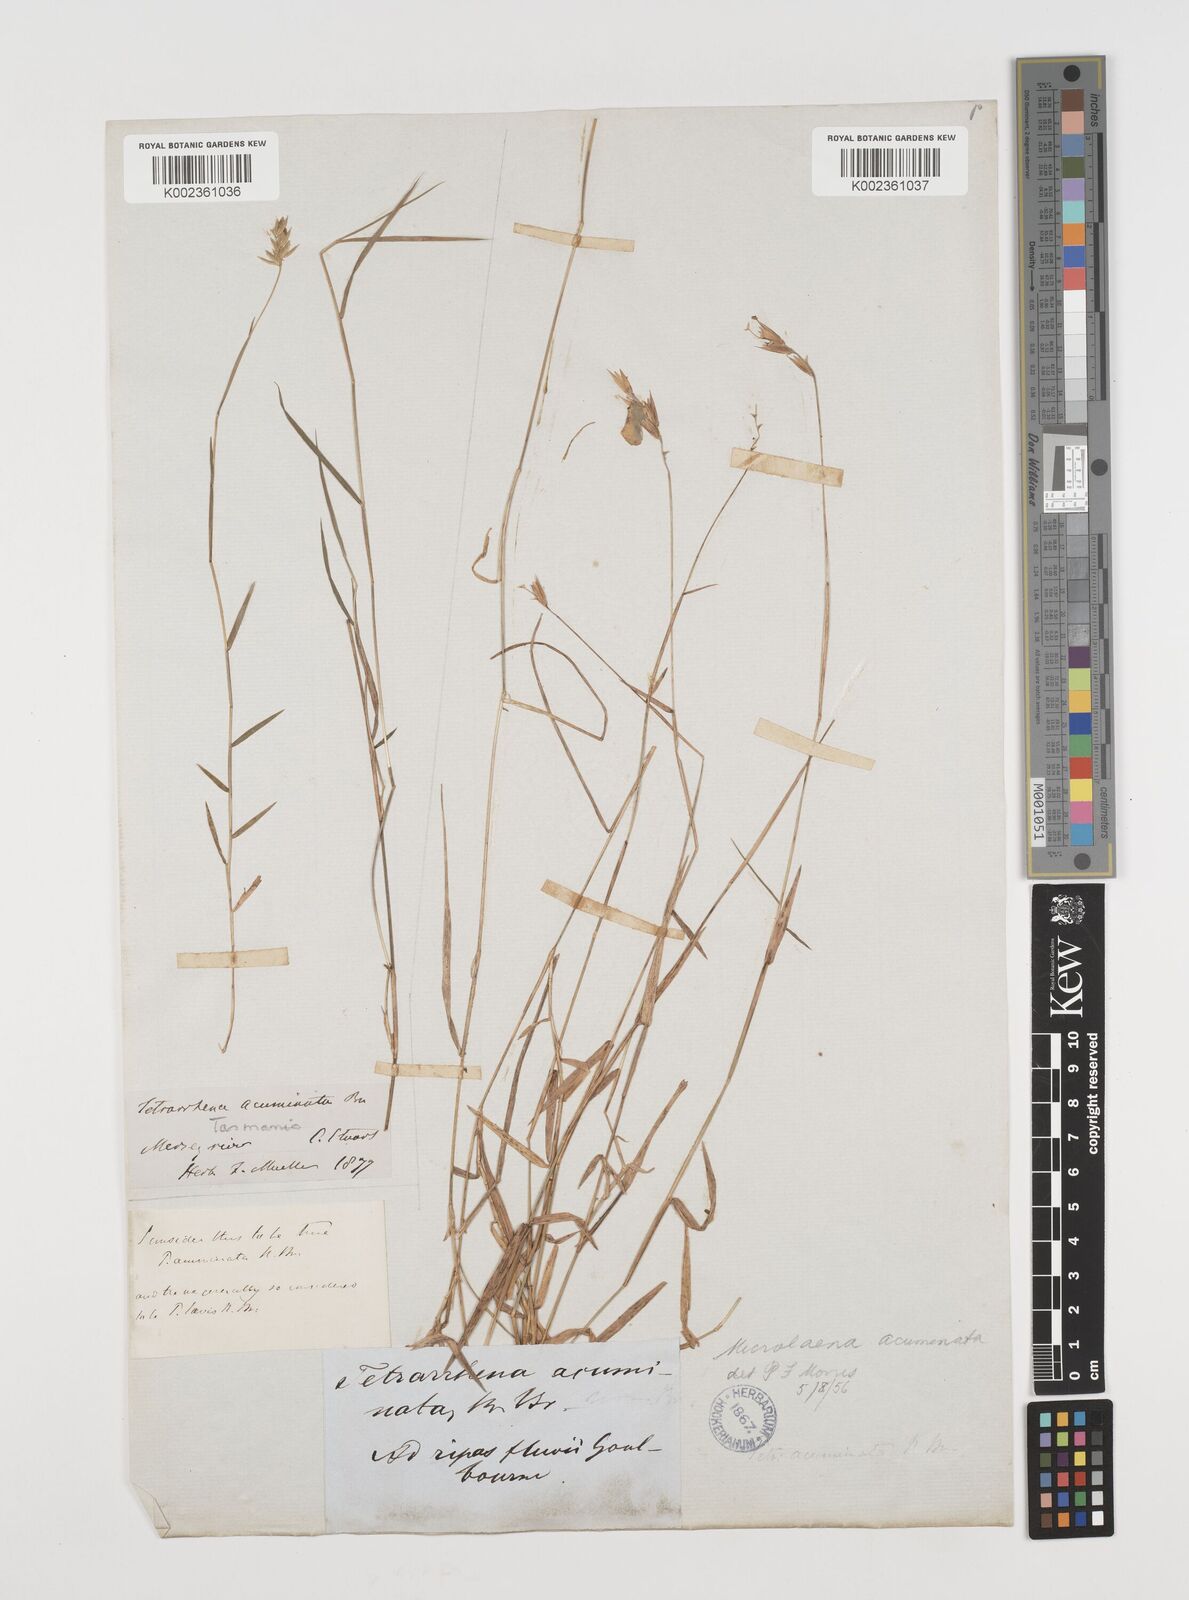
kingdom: Plantae
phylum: Tracheophyta
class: Liliopsida
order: Poales
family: Poaceae
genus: Tetrarrhena
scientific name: Tetrarrhena acuminata
